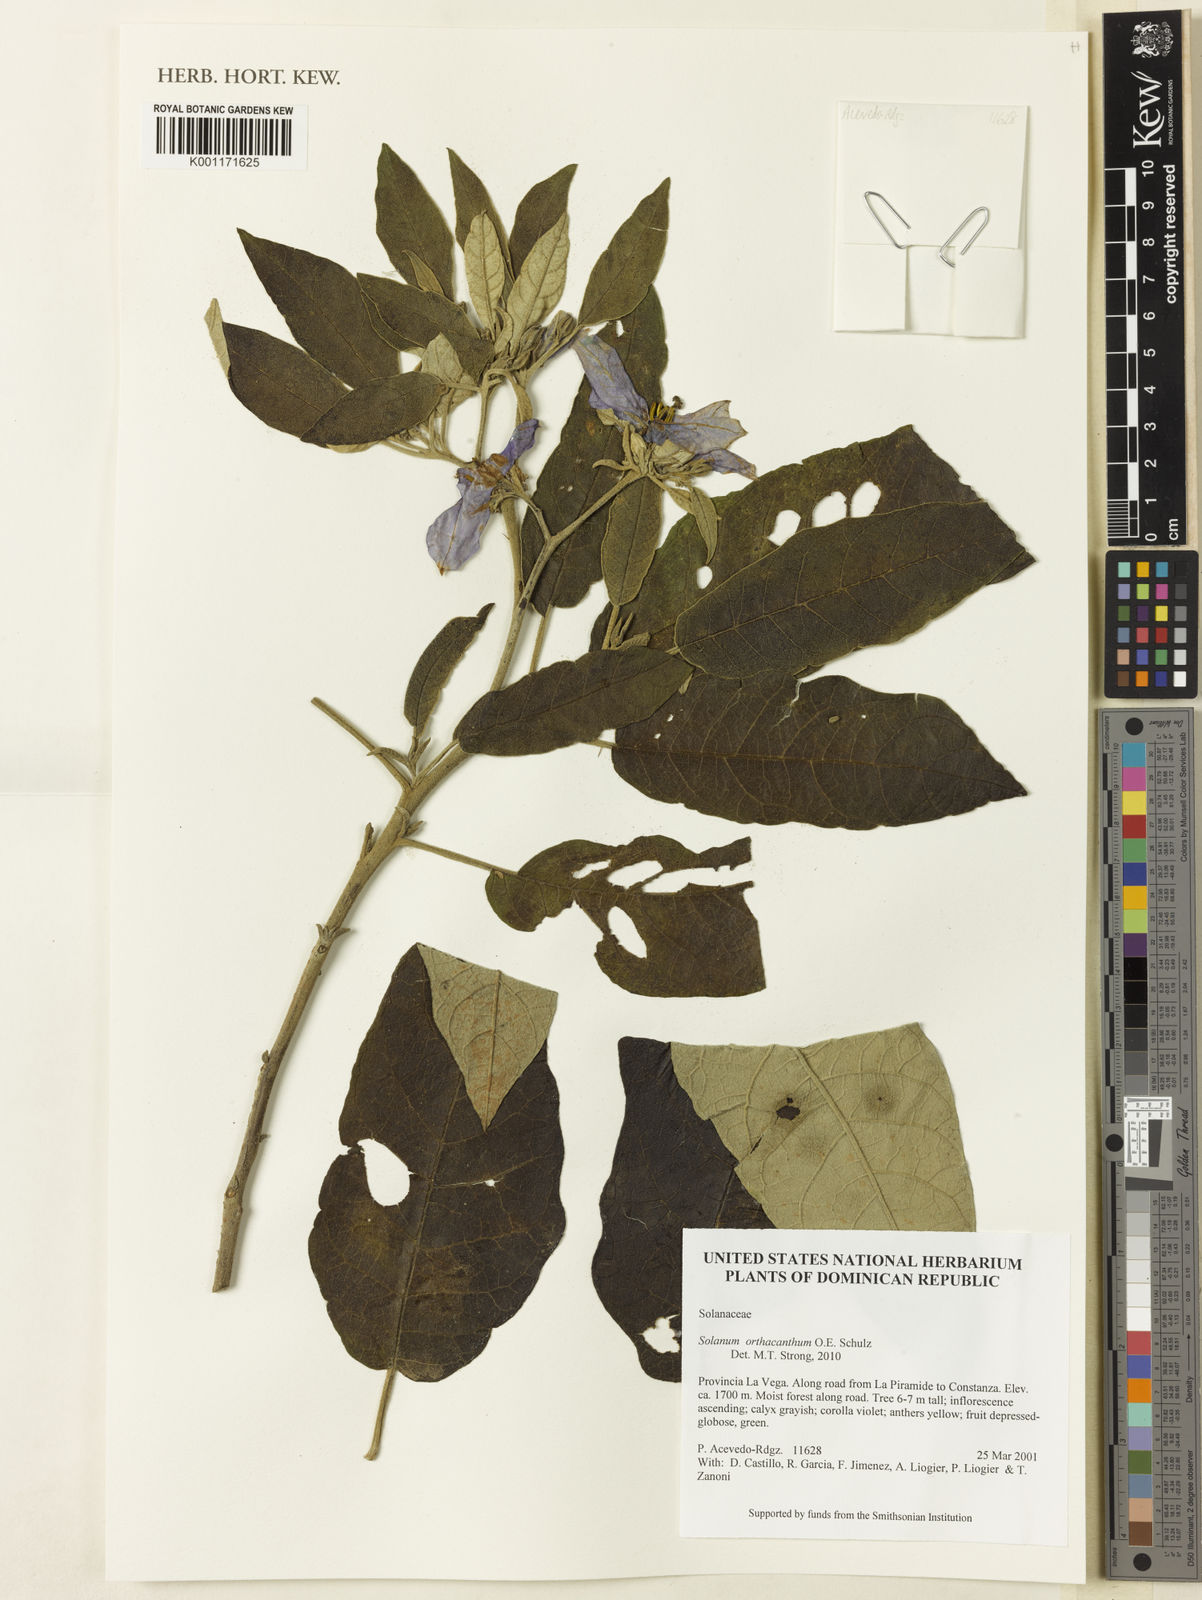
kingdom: Plantae
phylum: Tracheophyta
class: Magnoliopsida
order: Solanales
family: Solanaceae
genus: Solanum
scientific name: Solanum orthacanthum
